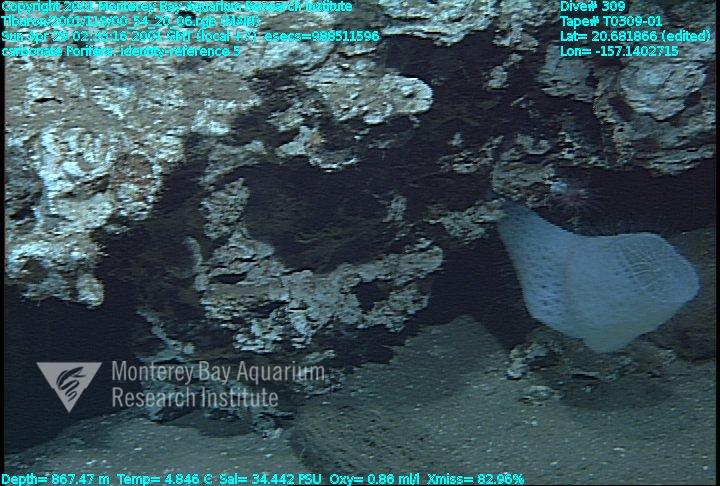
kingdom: Animalia
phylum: Porifera
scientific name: Porifera
